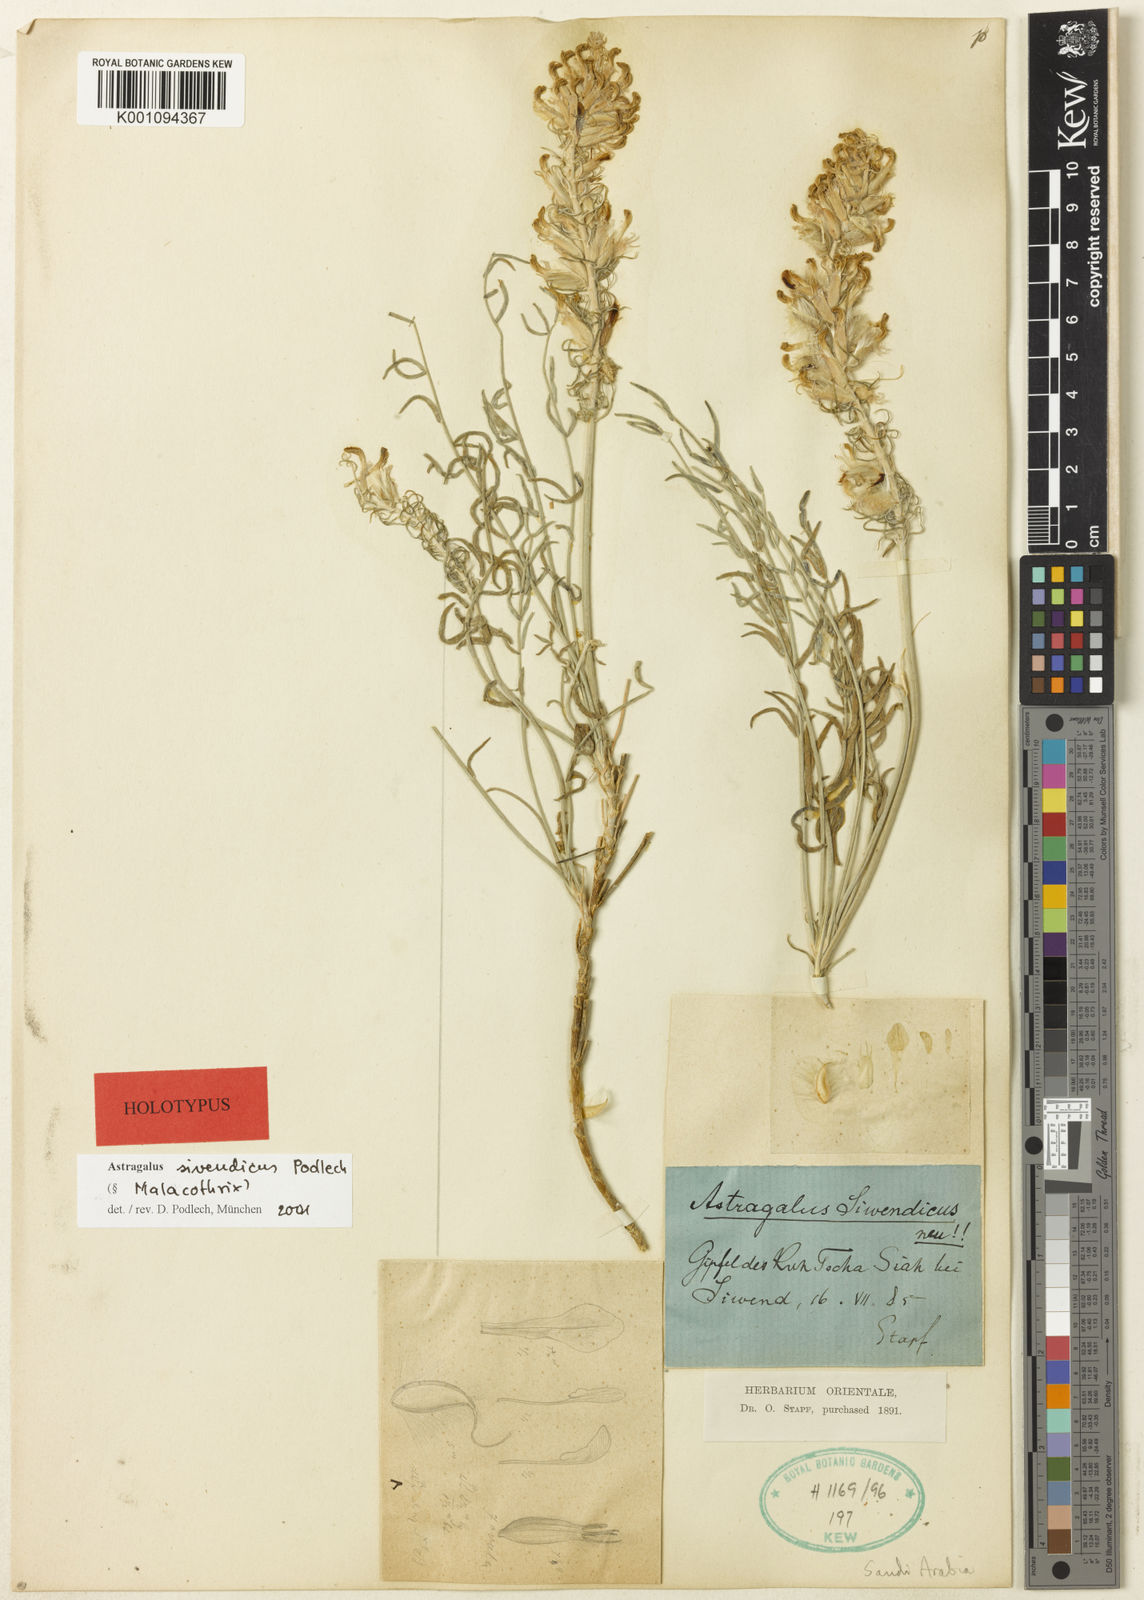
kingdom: Plantae
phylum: Tracheophyta
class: Magnoliopsida
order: Fabales
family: Fabaceae
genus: Astragalus
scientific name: Astragalus
